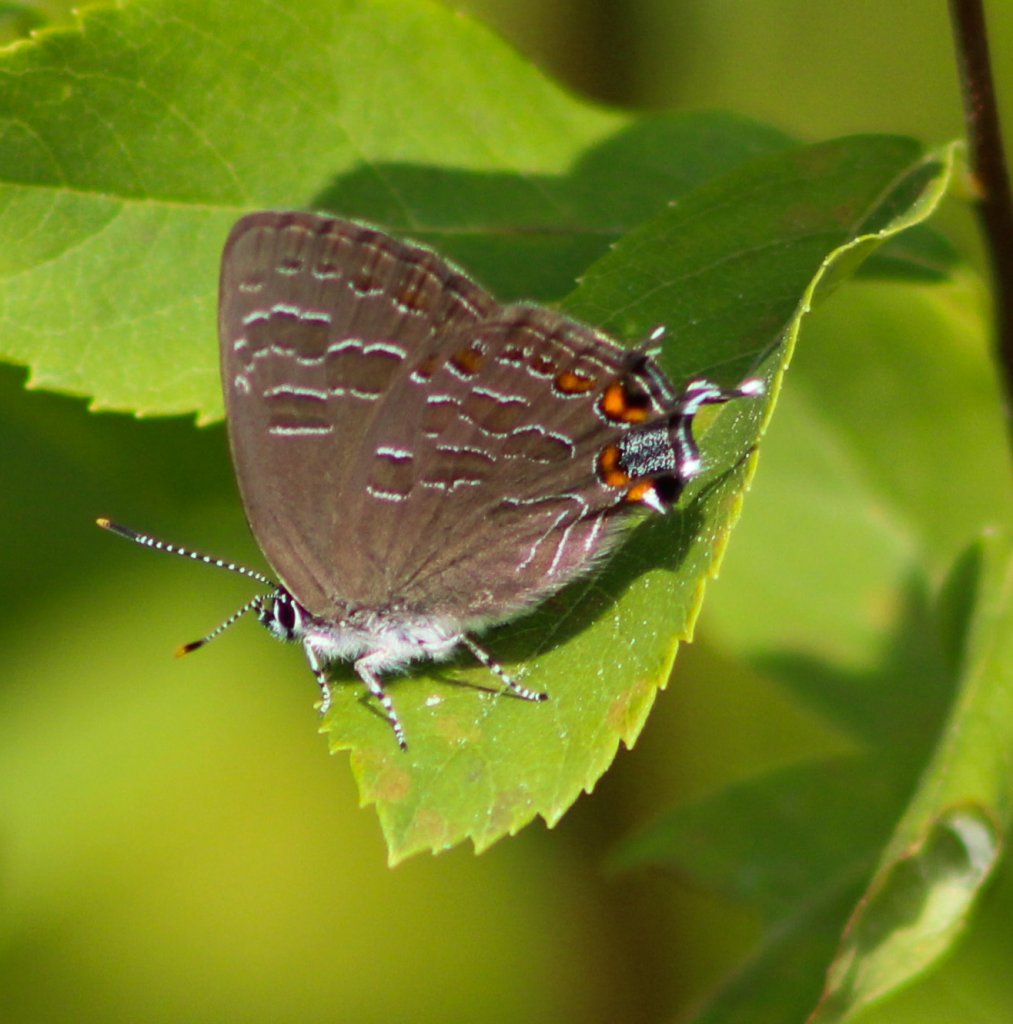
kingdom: Animalia
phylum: Arthropoda
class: Insecta
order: Lepidoptera
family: Lycaenidae
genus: Satyrium
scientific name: Satyrium liparops
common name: Striped Hairstreak
